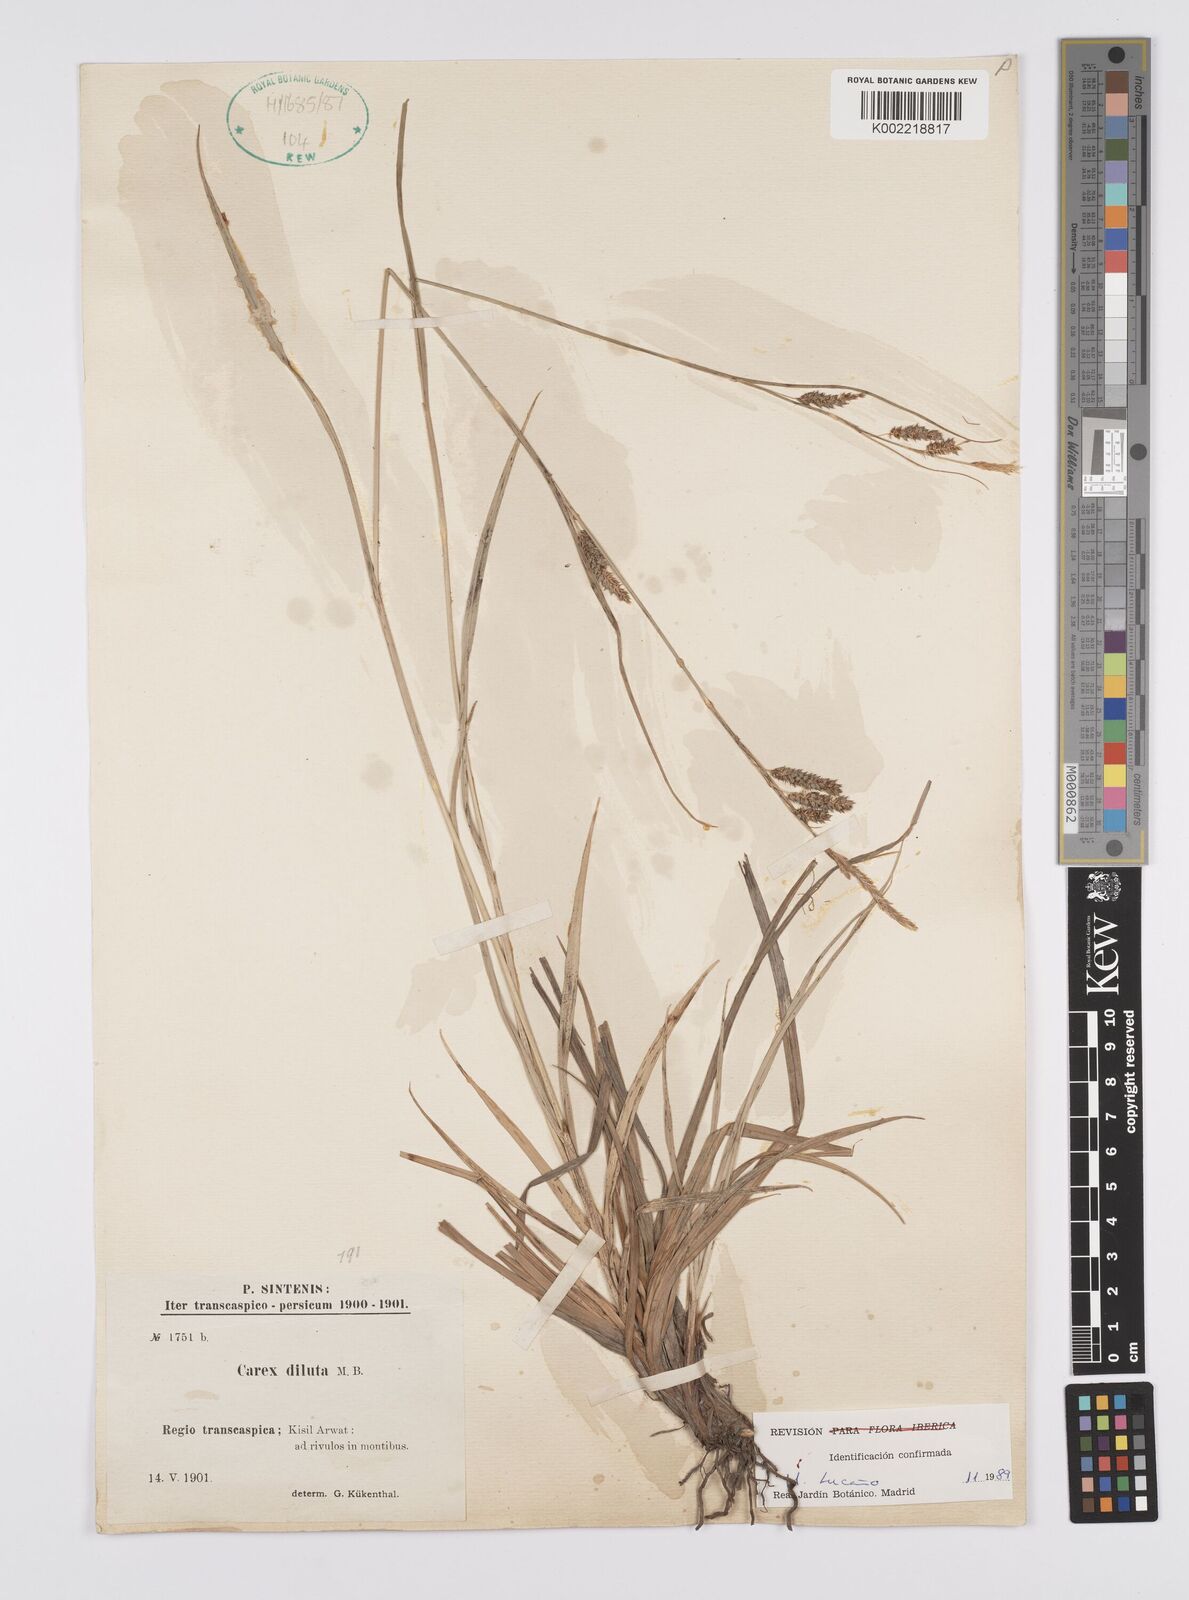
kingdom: Plantae
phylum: Tracheophyta
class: Liliopsida
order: Poales
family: Cyperaceae
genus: Carex
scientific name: Carex diluta
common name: Sedge
